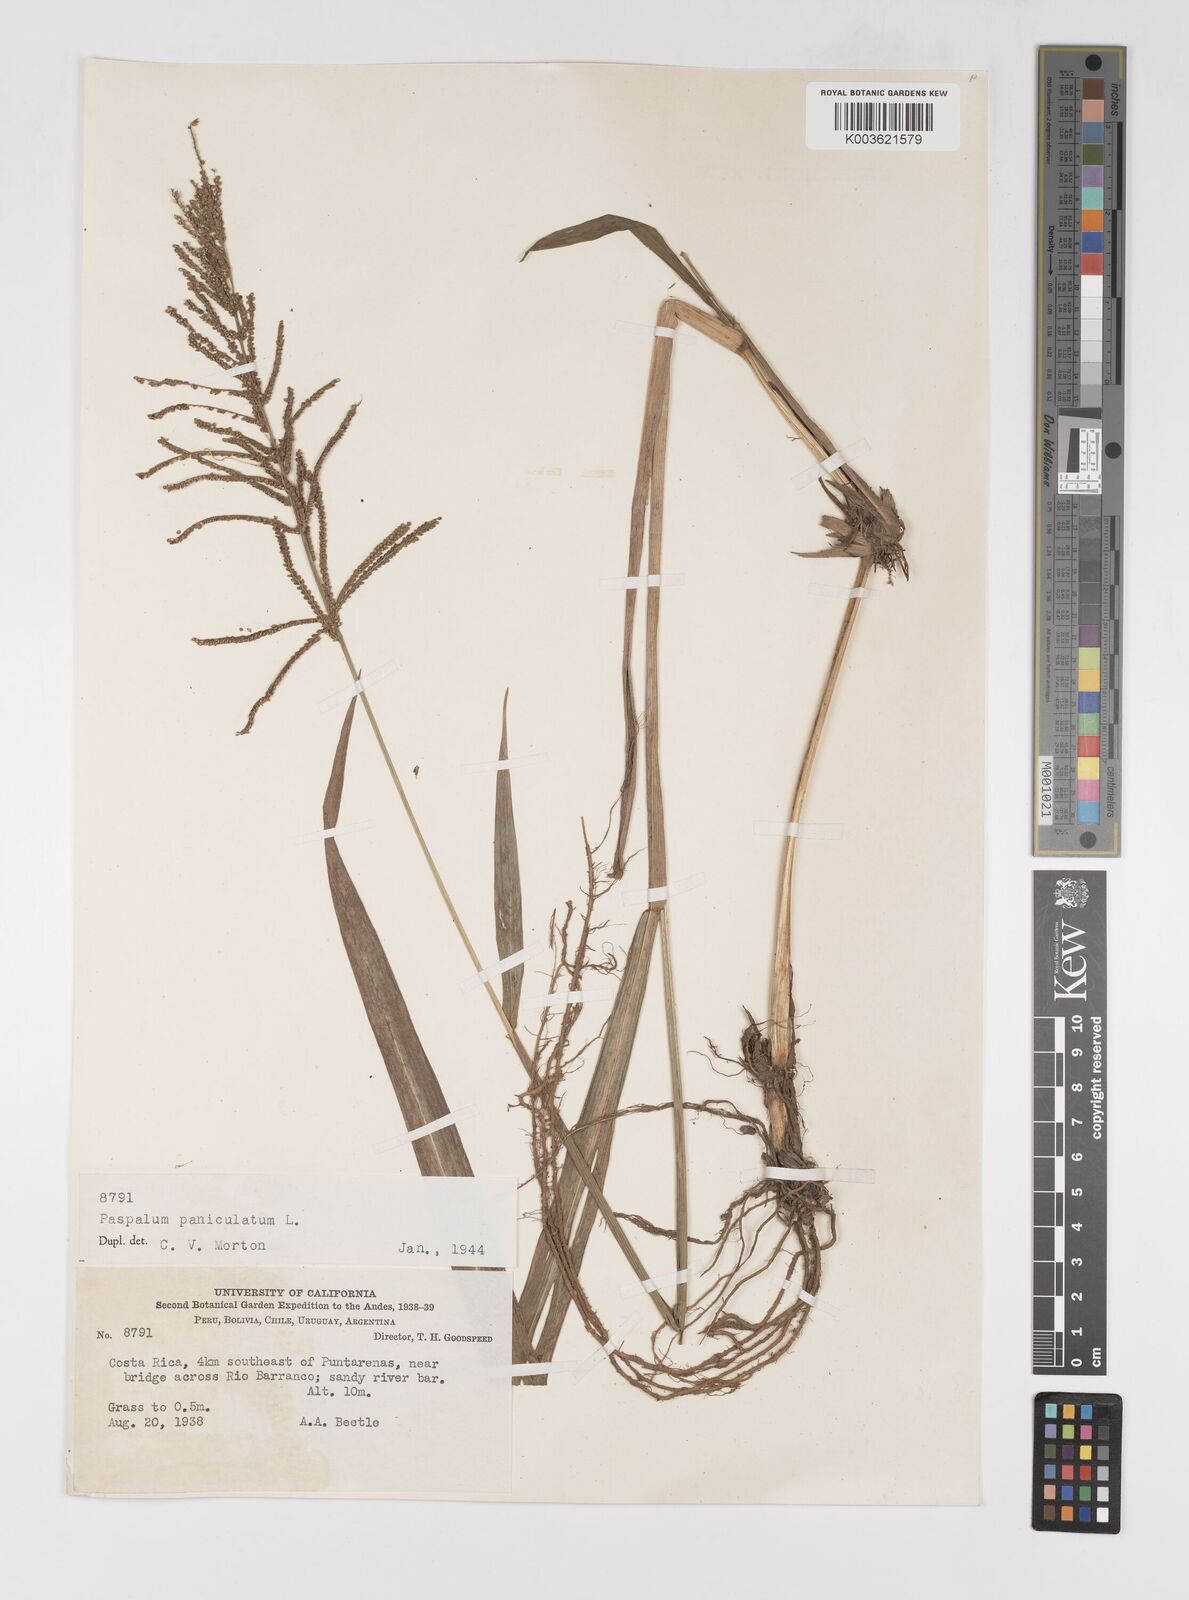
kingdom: Plantae
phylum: Tracheophyta
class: Liliopsida
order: Poales
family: Poaceae
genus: Paspalum
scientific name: Paspalum paniculatum
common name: Arrocillo
